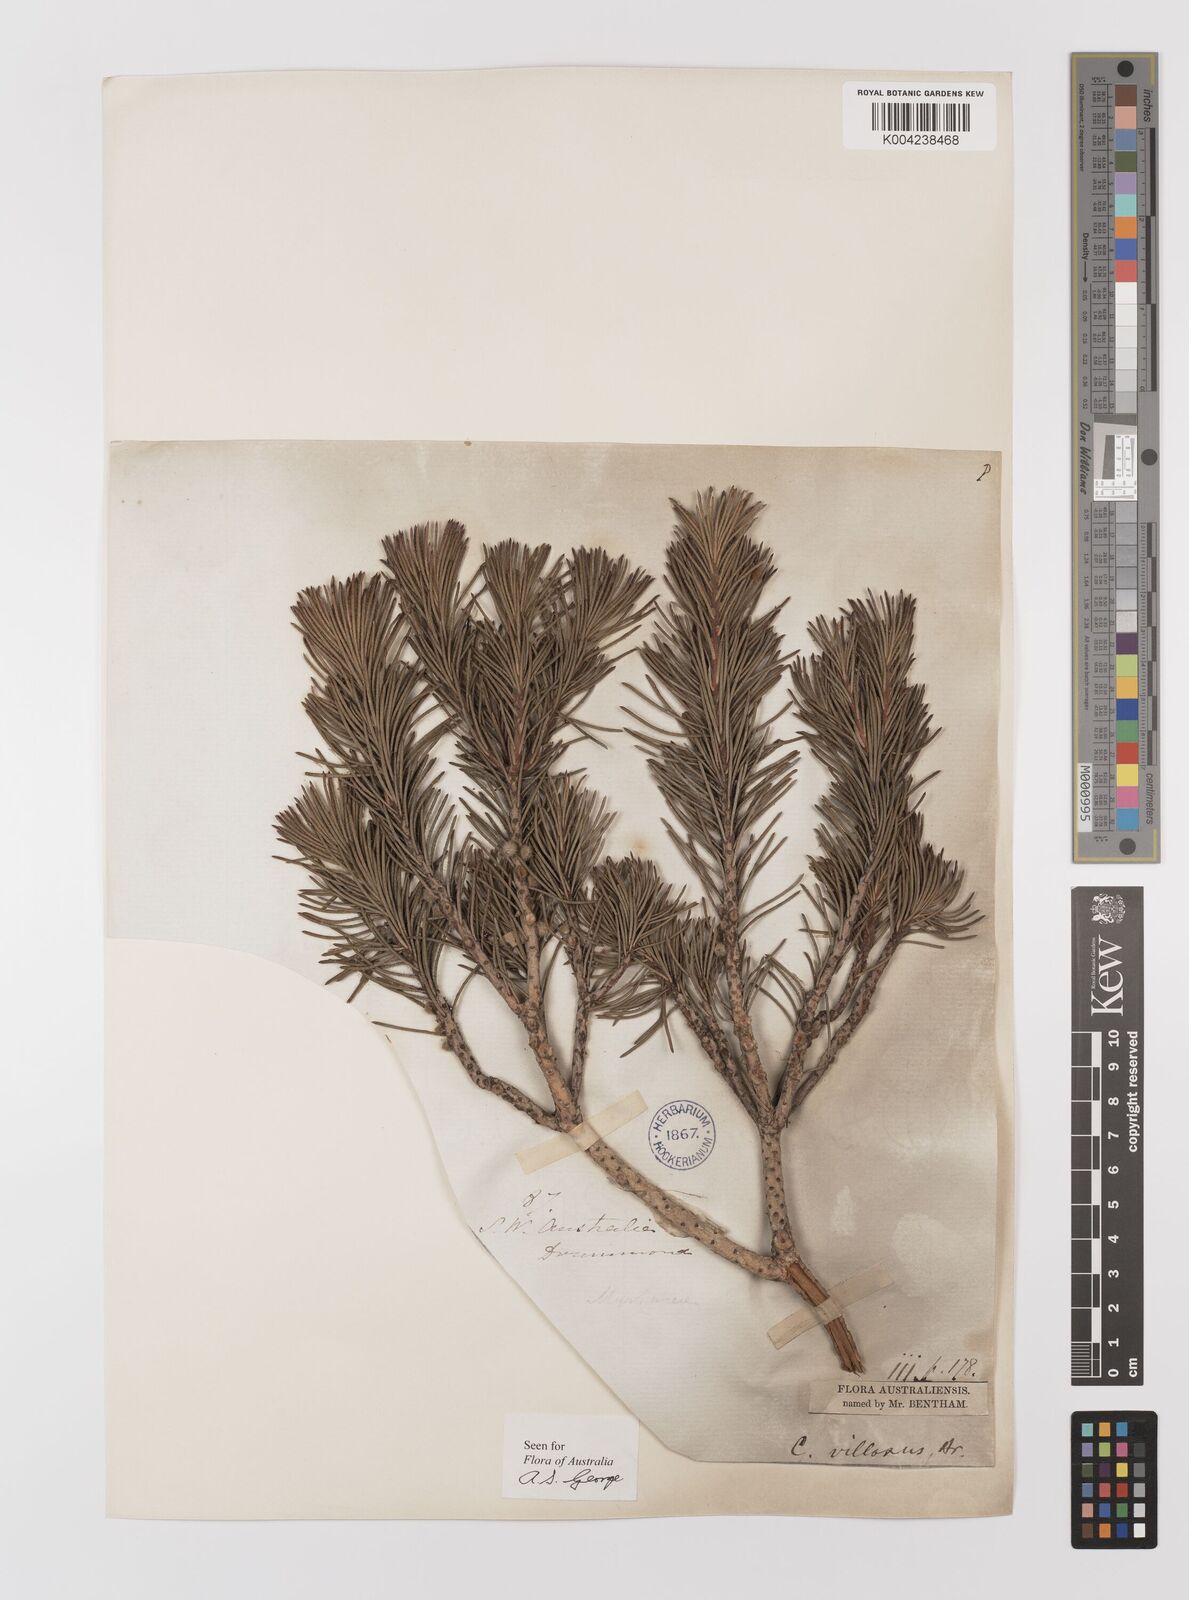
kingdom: Plantae
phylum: Tracheophyta
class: Magnoliopsida
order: Myrtales
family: Myrtaceae
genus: Melaleuca
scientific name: Melaleuca hislopii
